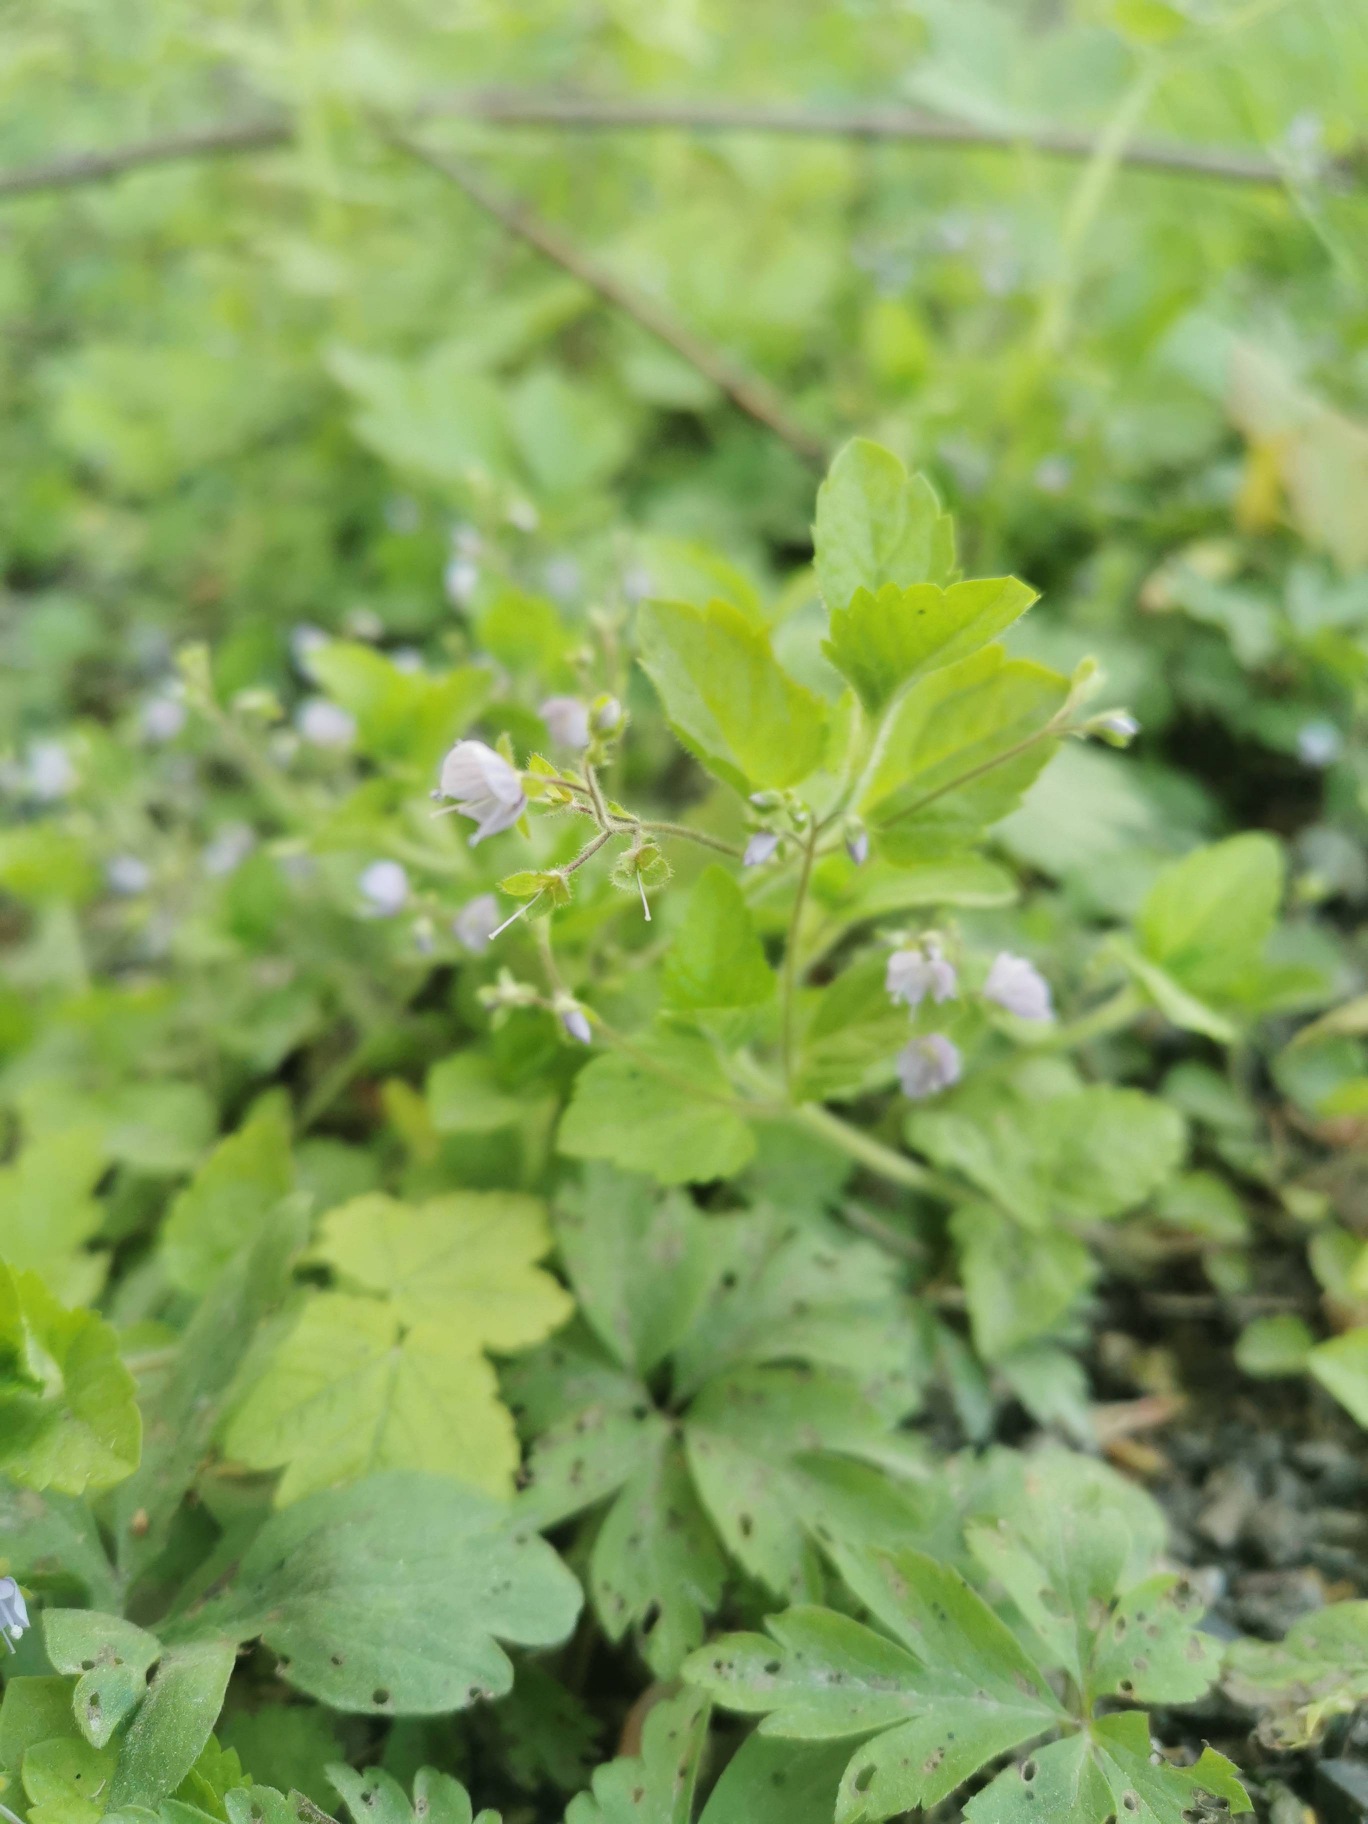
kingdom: Plantae
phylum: Tracheophyta
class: Magnoliopsida
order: Lamiales
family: Plantaginaceae
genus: Veronica
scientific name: Veronica montana
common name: Bjerg-ærenpris
